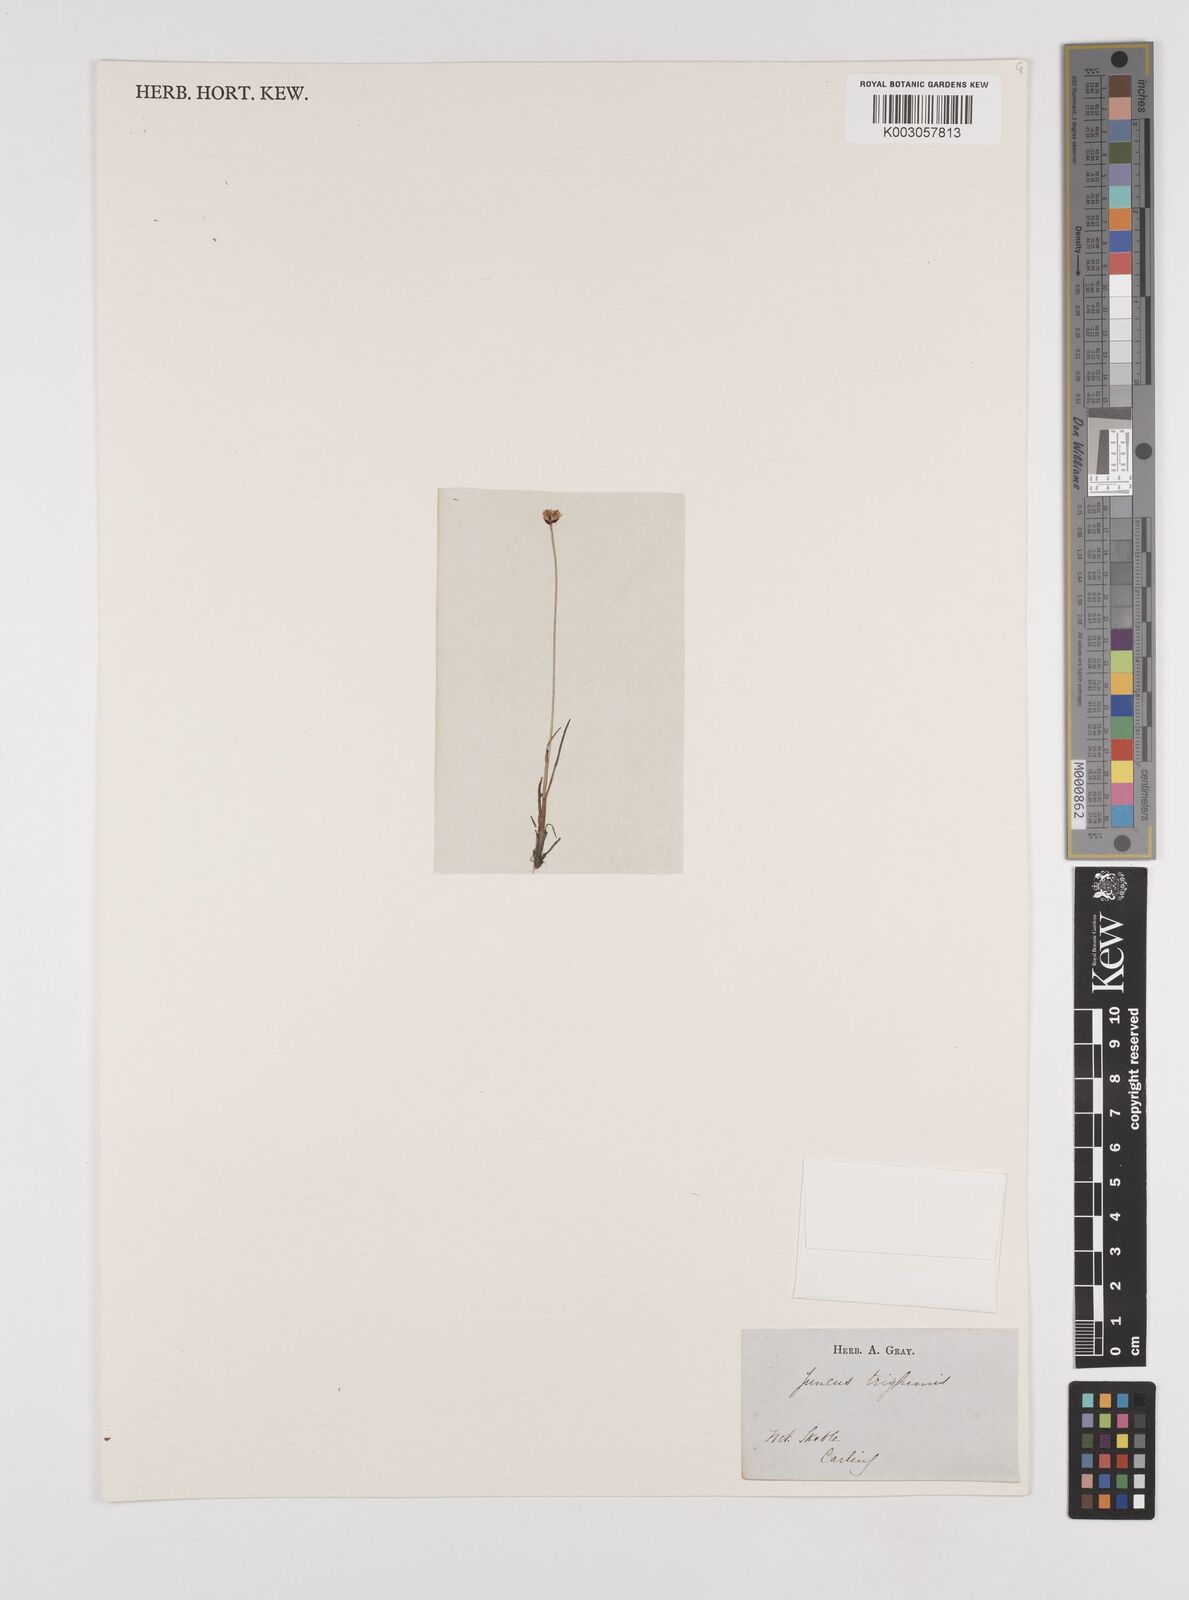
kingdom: Plantae
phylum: Tracheophyta
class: Liliopsida
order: Poales
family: Juncaceae
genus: Juncus
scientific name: Juncus triglumis
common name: Three-flowered rush
